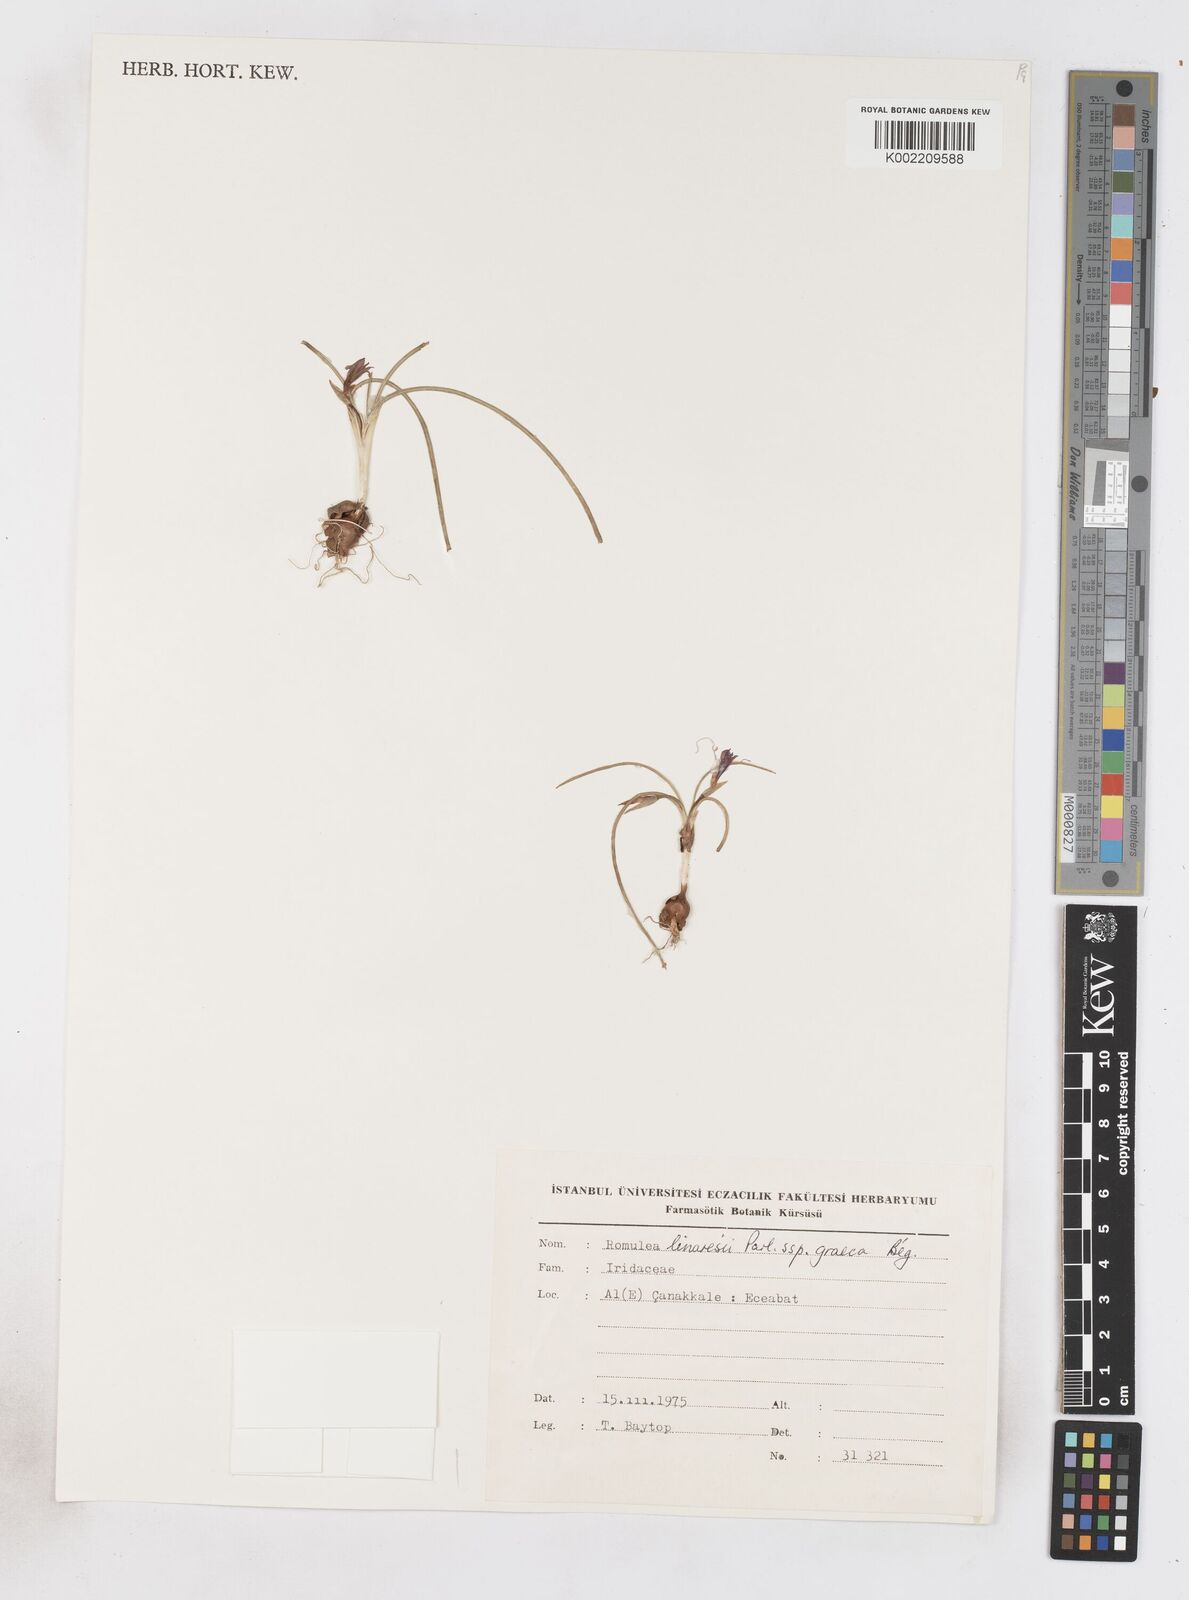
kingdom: Plantae
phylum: Tracheophyta
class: Liliopsida
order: Asparagales
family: Iridaceae
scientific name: Iridaceae
